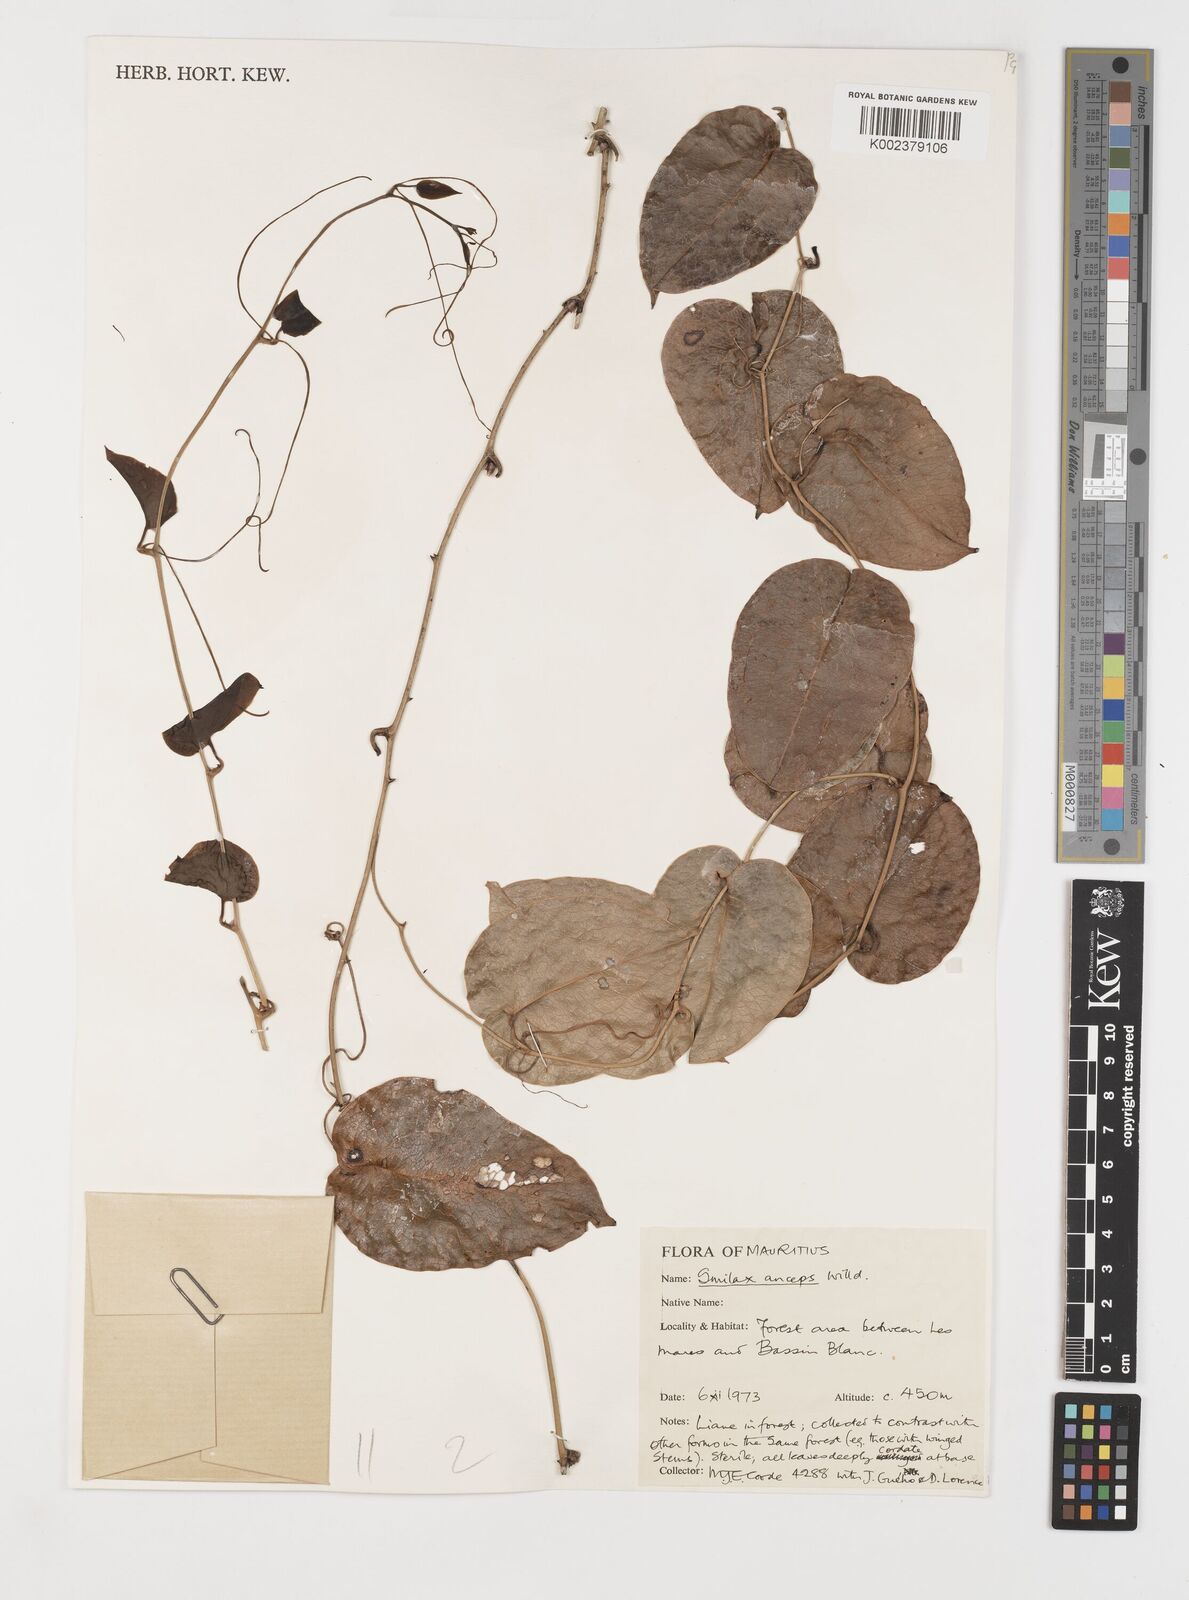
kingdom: Plantae
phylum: Tracheophyta
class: Liliopsida
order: Liliales
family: Smilacaceae
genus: Smilax
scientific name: Smilax anceps
